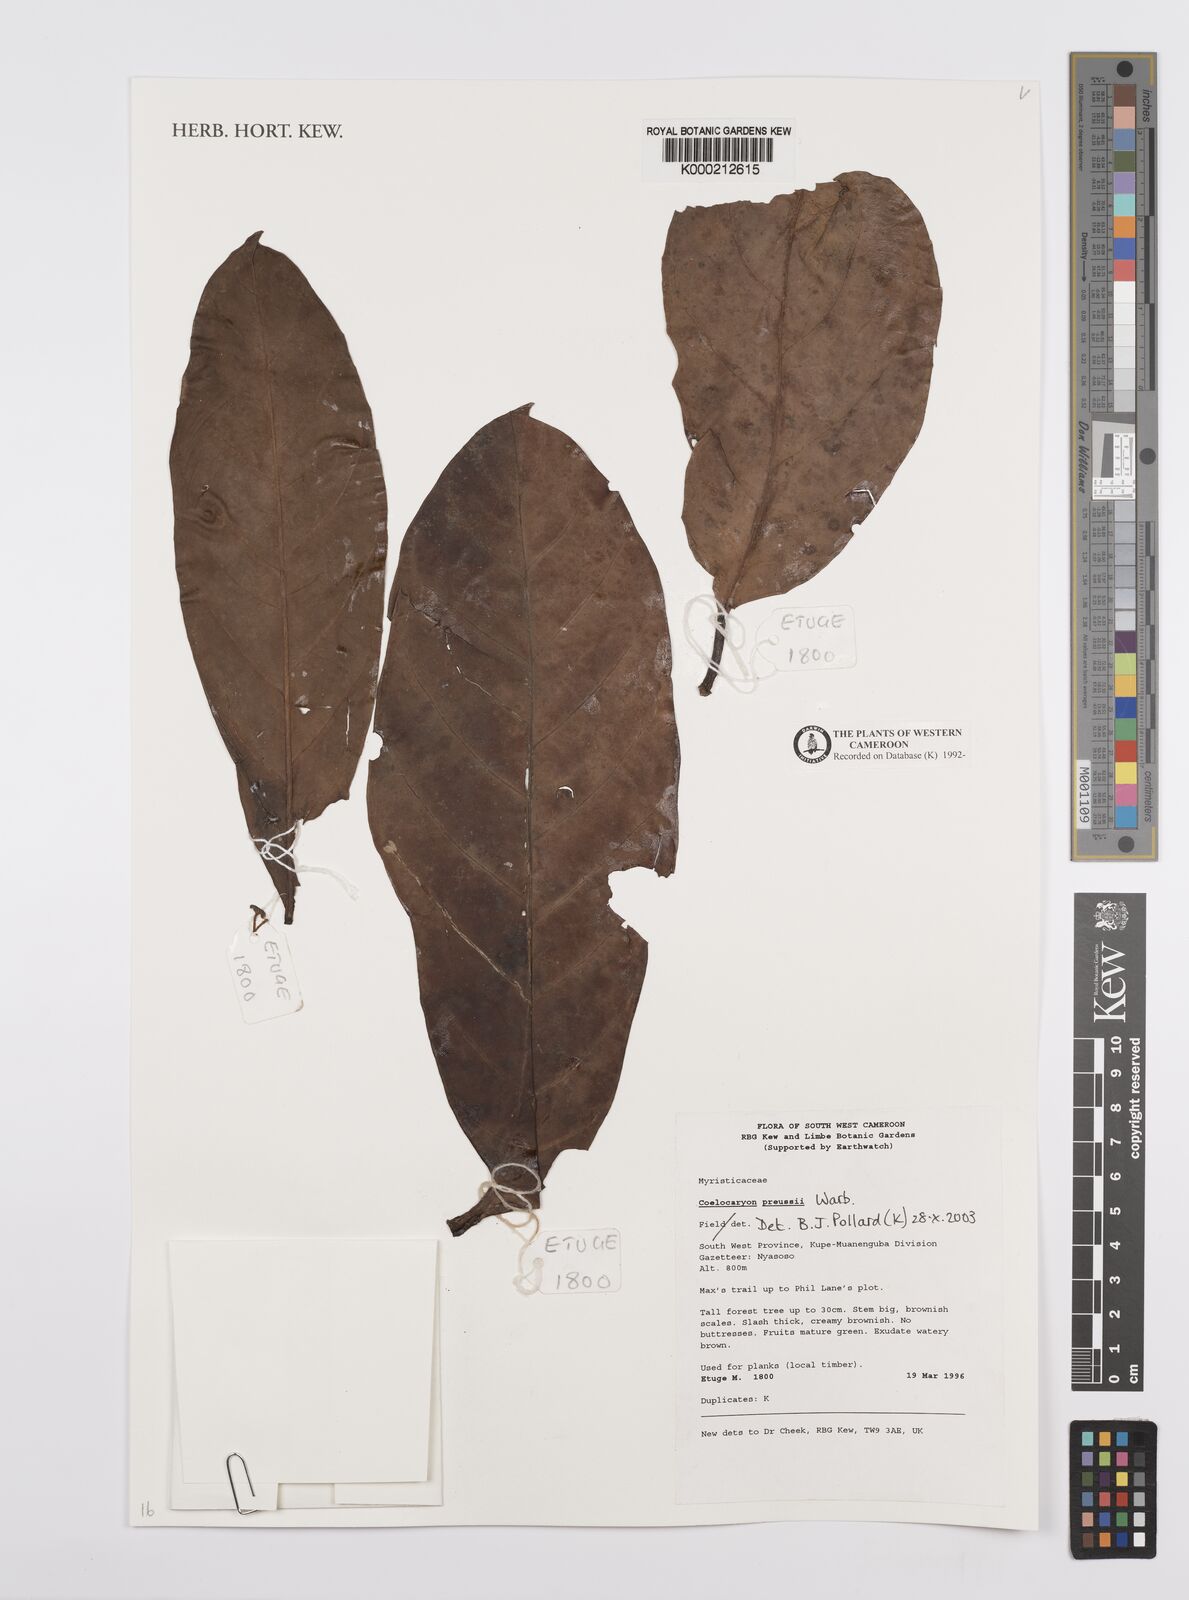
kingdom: Plantae
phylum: Tracheophyta
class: Magnoliopsida
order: Magnoliales
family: Myristicaceae
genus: Coelocaryon
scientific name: Coelocaryon preussii
